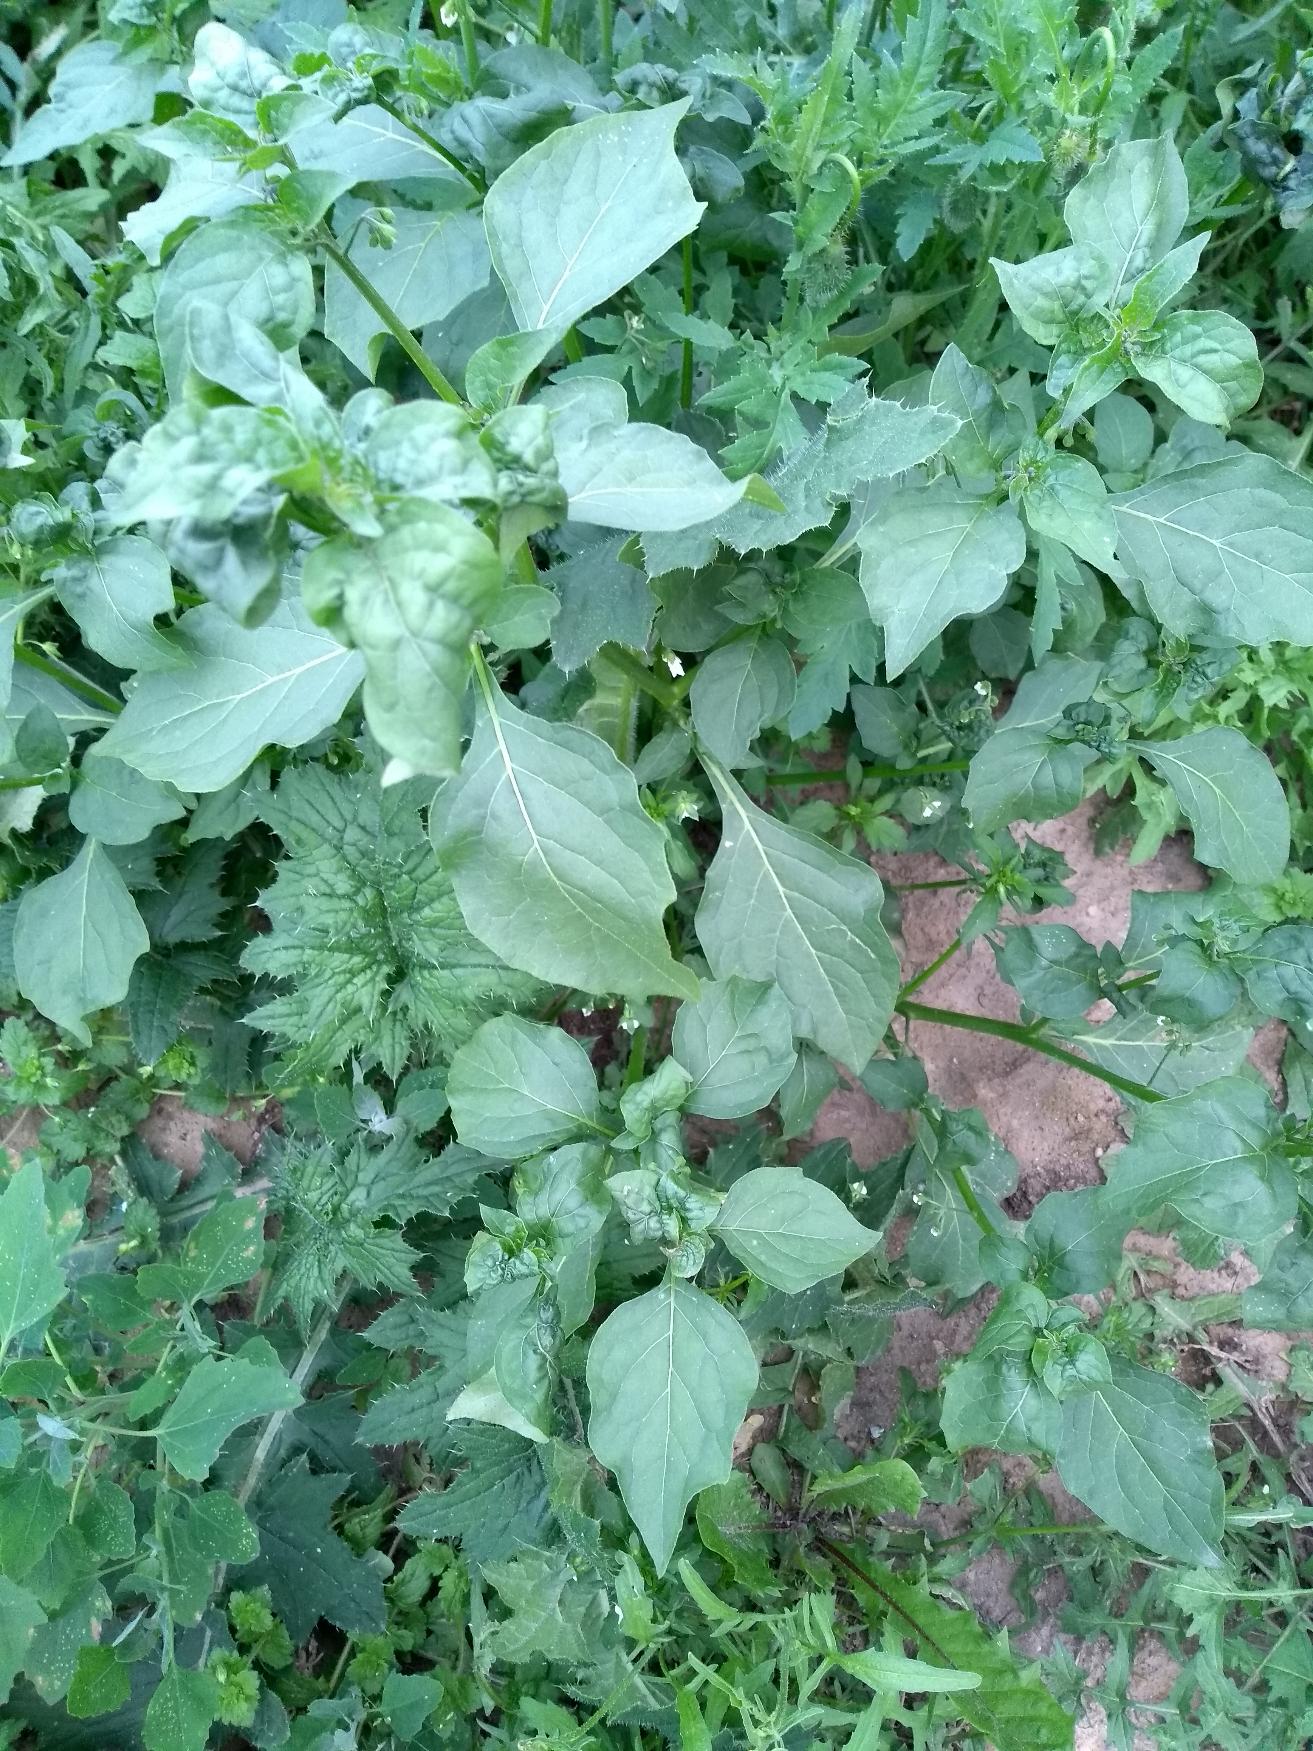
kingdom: Plantae
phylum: Tracheophyta
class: Magnoliopsida
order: Solanales
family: Solanaceae
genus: Solanum
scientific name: Solanum nigrum
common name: Sort natskygge
